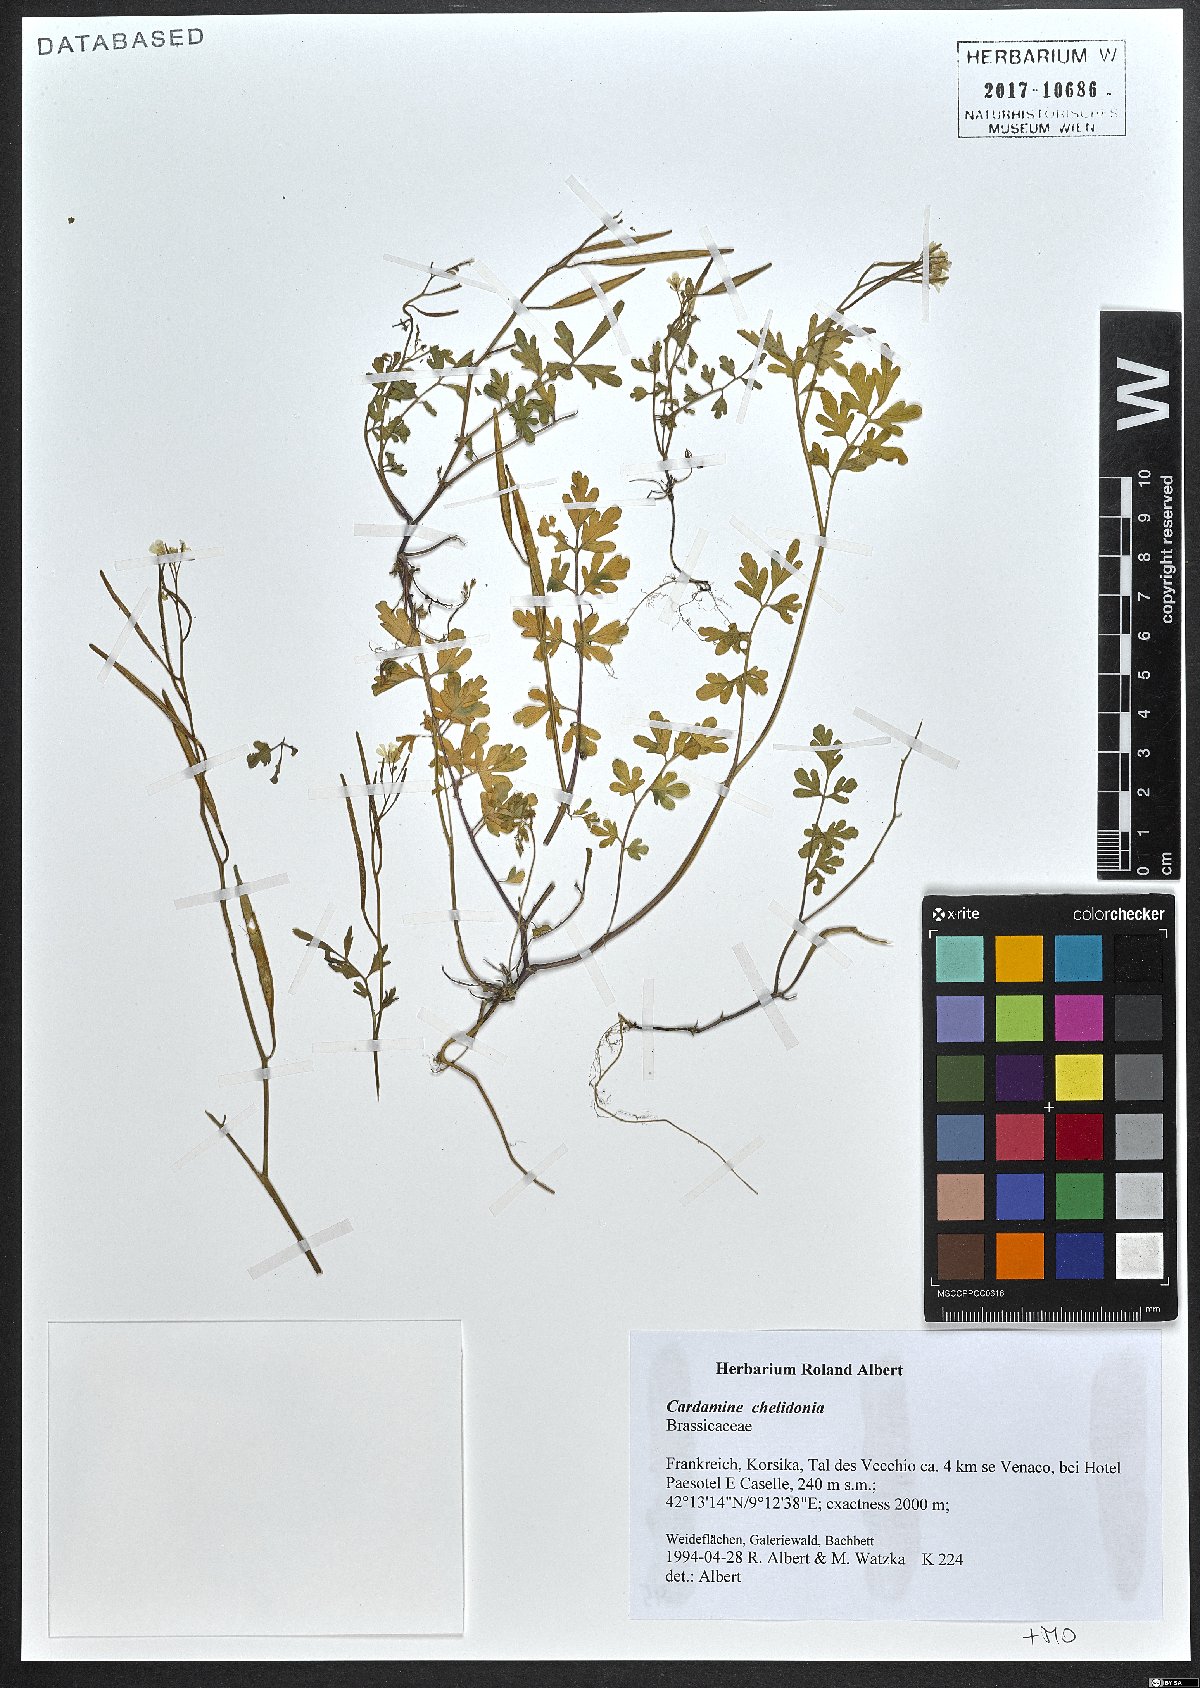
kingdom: Plantae
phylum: Tracheophyta
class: Magnoliopsida
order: Brassicales
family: Brassicaceae
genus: Cardamine
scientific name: Cardamine chelidonia
